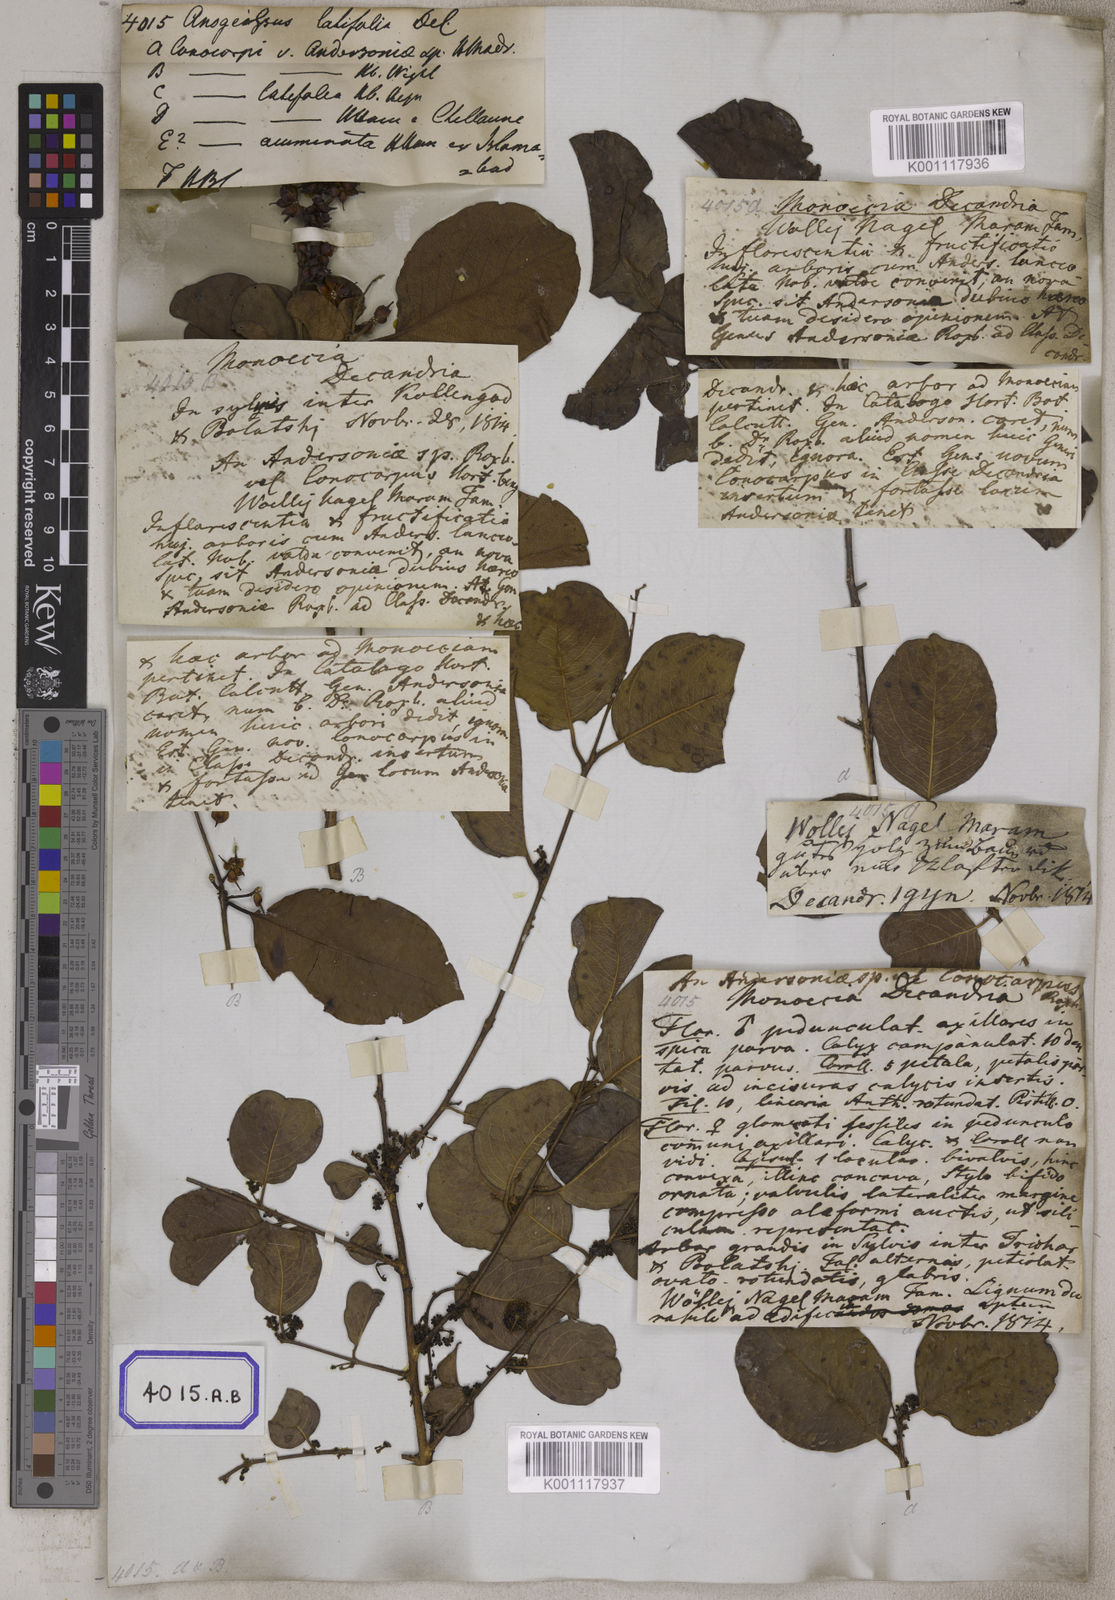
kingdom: Plantae
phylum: Tracheophyta
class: Magnoliopsida
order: Myrtales
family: Combretaceae
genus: Anogeissus
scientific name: Anogeissus
